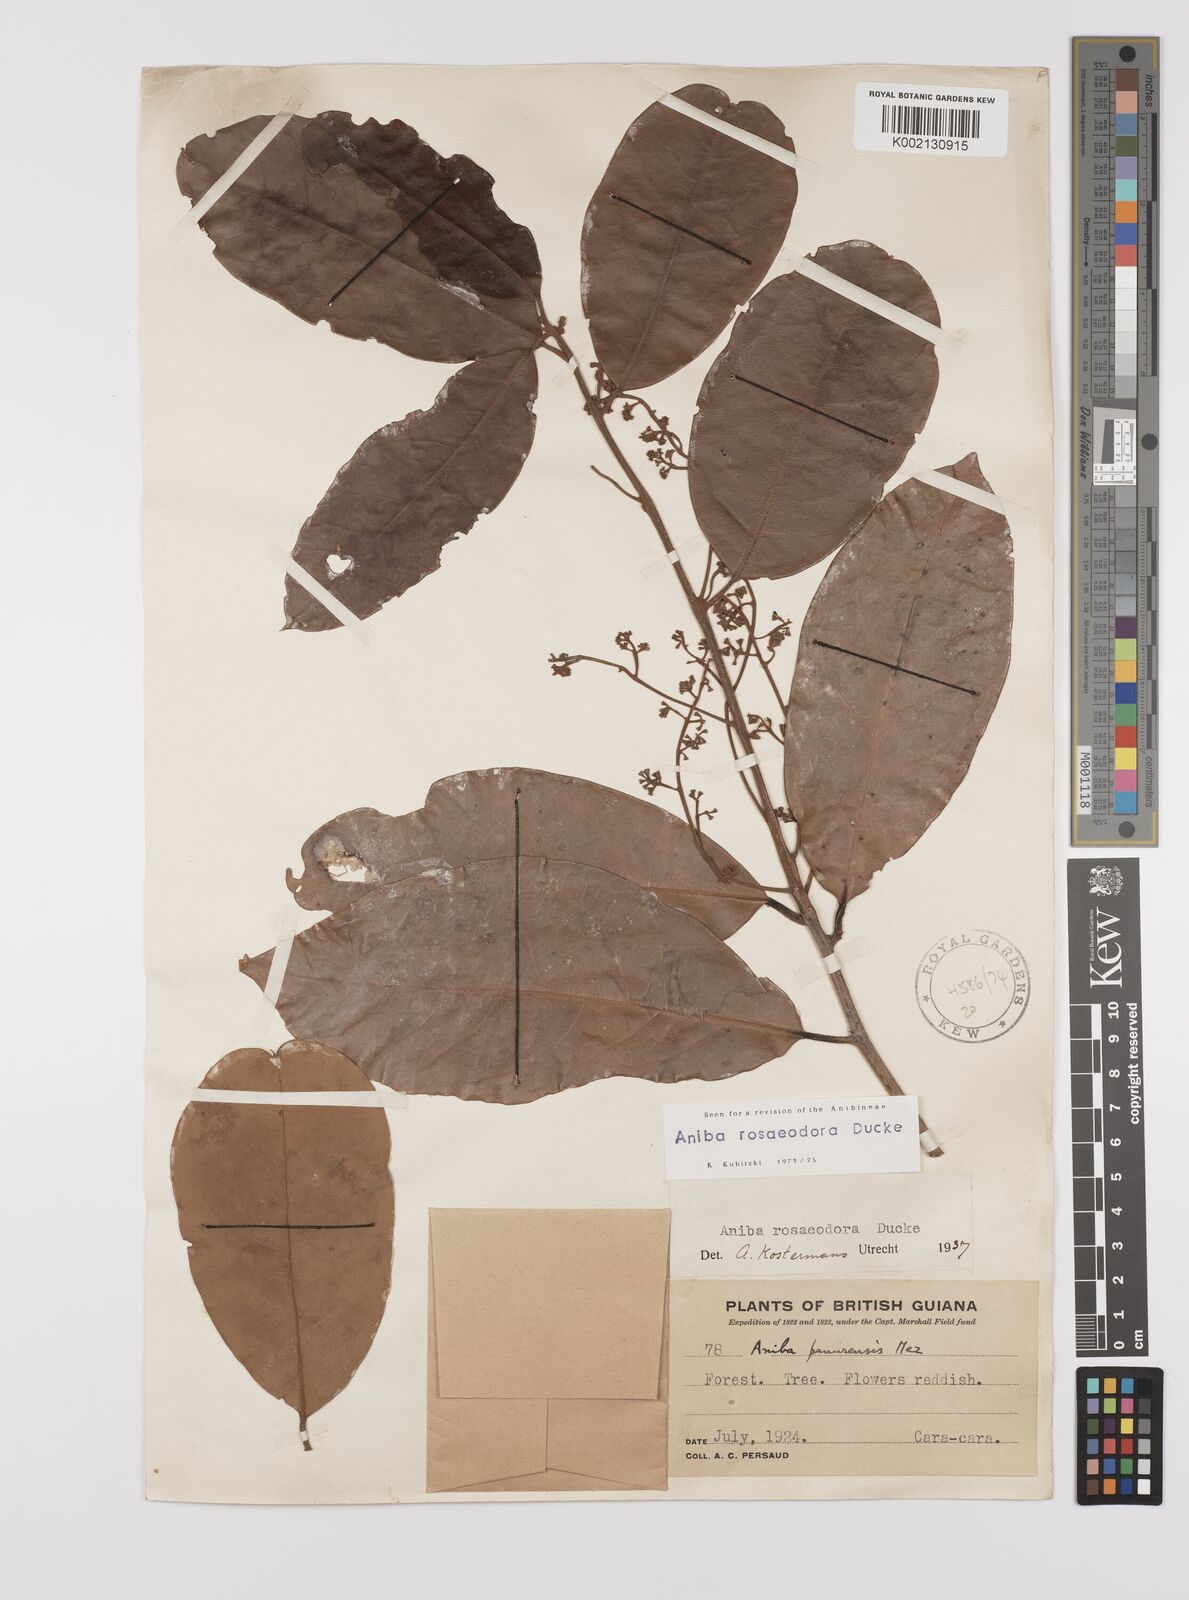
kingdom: Plantae
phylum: Tracheophyta
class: Magnoliopsida
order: Laurales
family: Lauraceae
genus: Aniba
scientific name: Aniba rosodora
